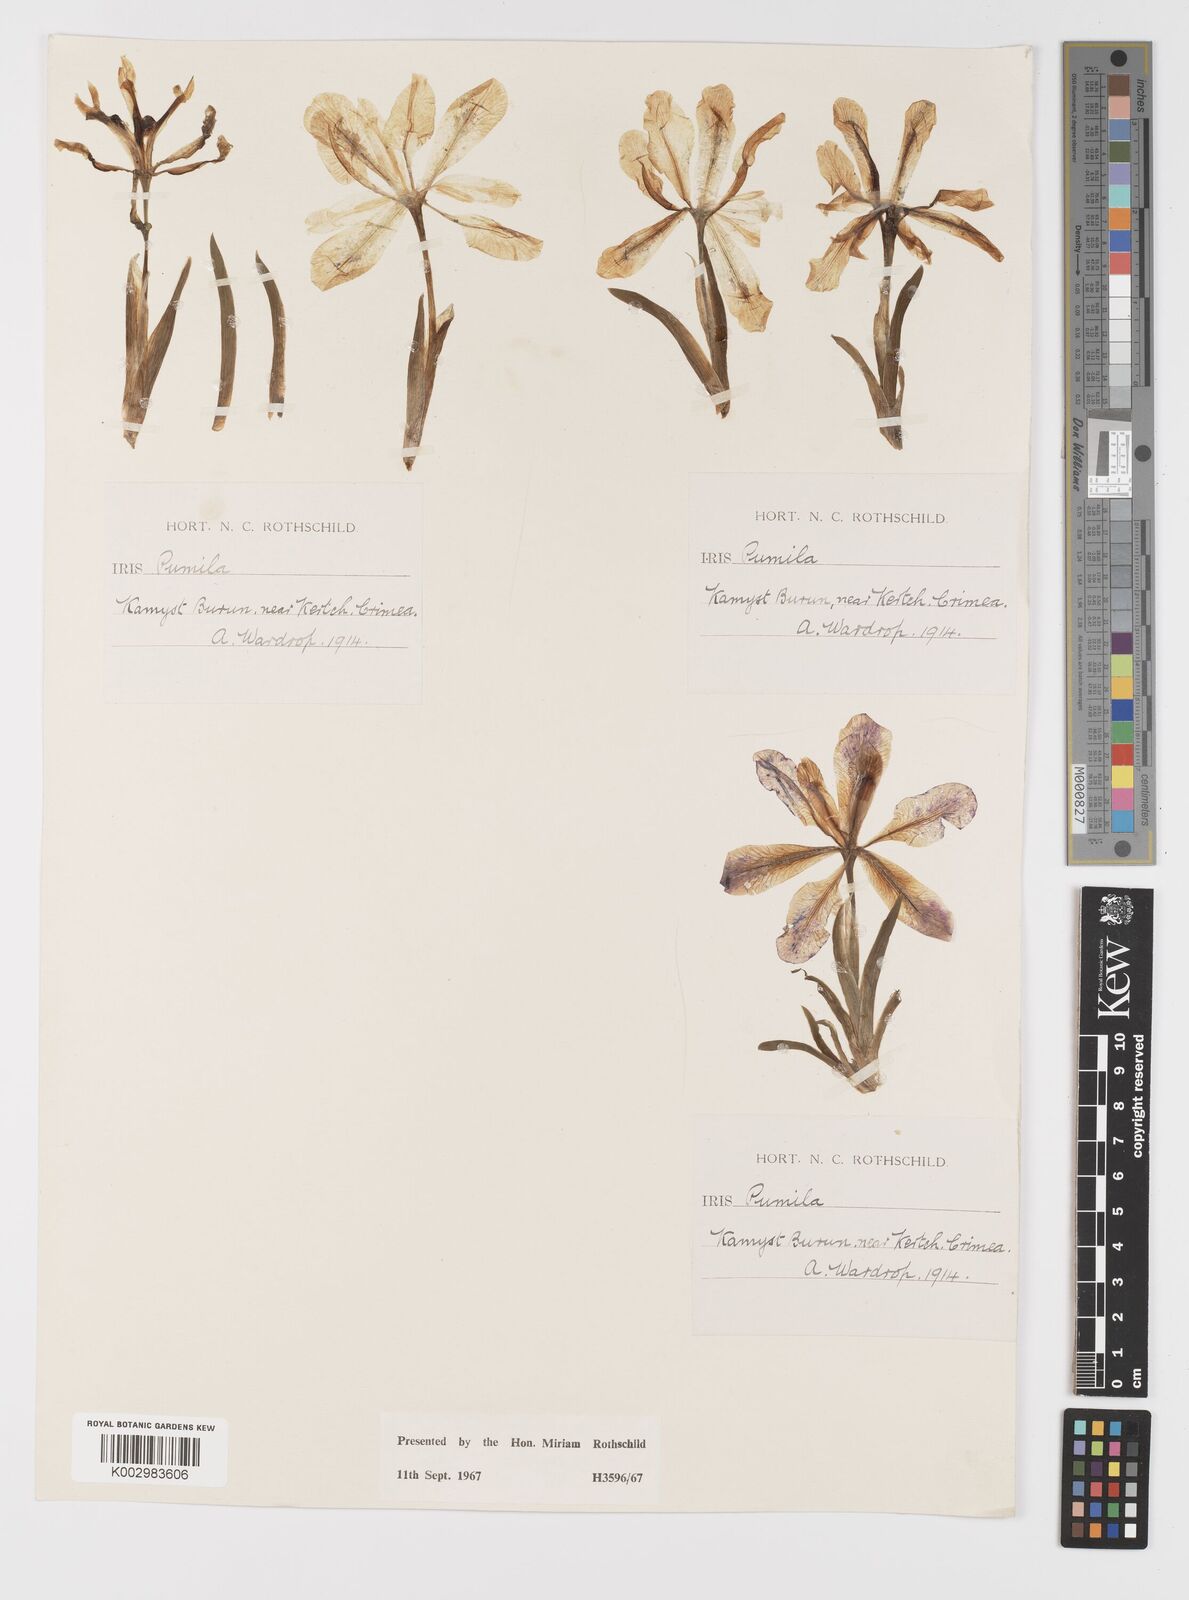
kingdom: Plantae
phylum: Tracheophyta
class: Liliopsida
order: Asparagales
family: Iridaceae
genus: Iris
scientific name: Iris pumila
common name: Dwarf iris
